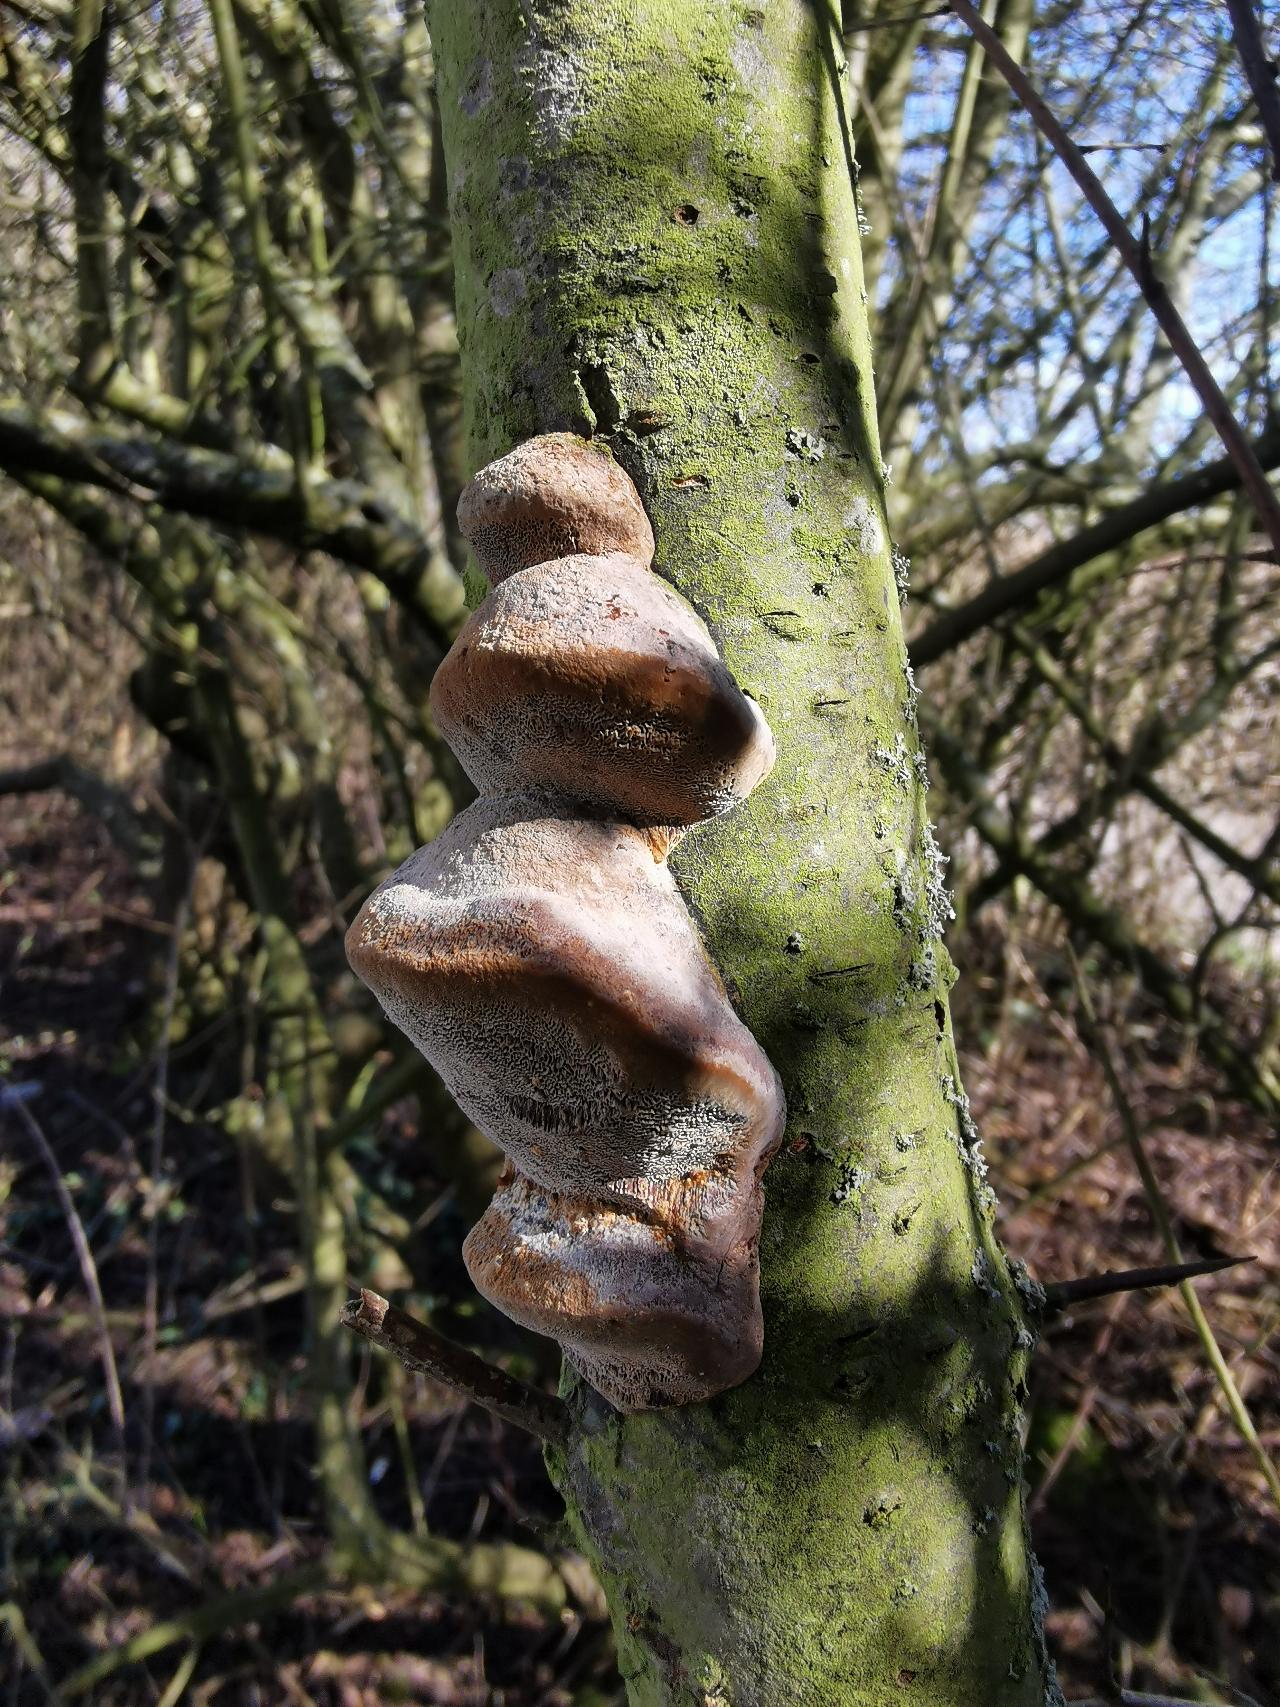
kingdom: Fungi
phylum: Basidiomycota
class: Agaricomycetes
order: Hymenochaetales
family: Hymenochaetaceae
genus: Phellinus
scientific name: Phellinus pomaceus
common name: Blomme-ildporesvamp
